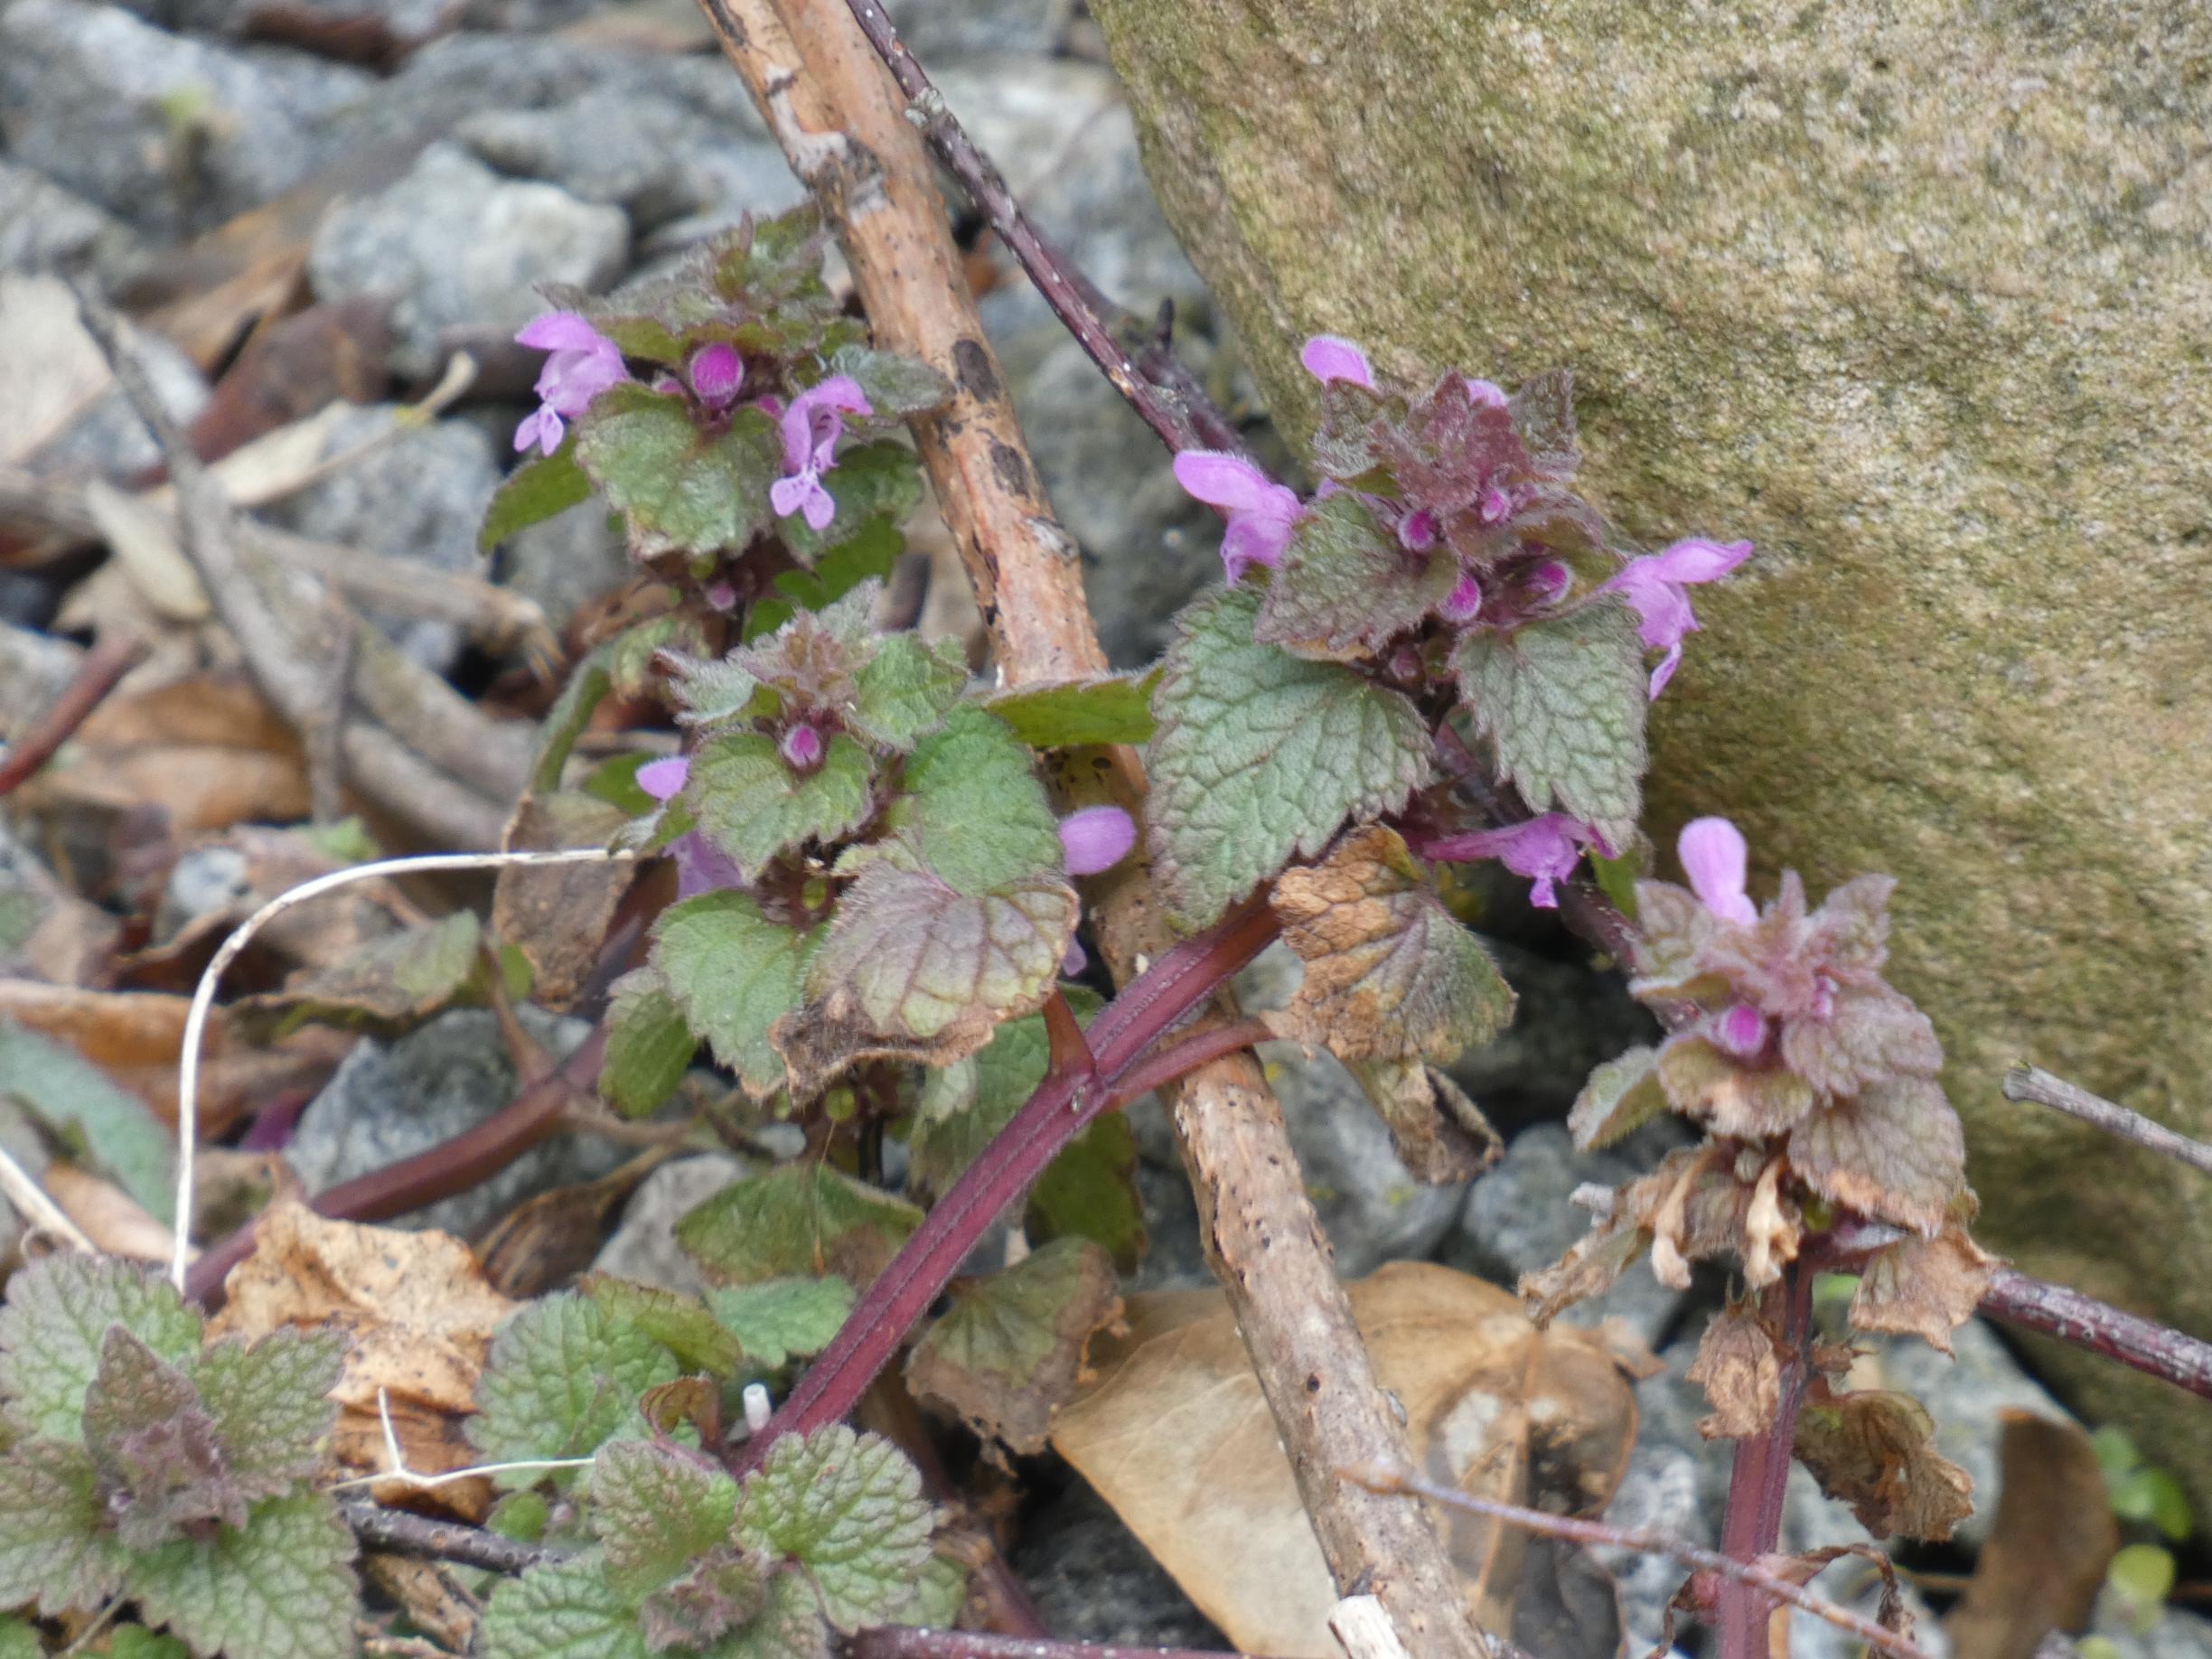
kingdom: Plantae
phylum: Tracheophyta
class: Magnoliopsida
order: Lamiales
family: Lamiaceae
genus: Lamium
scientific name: Lamium purpureum
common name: Rød tvetand
